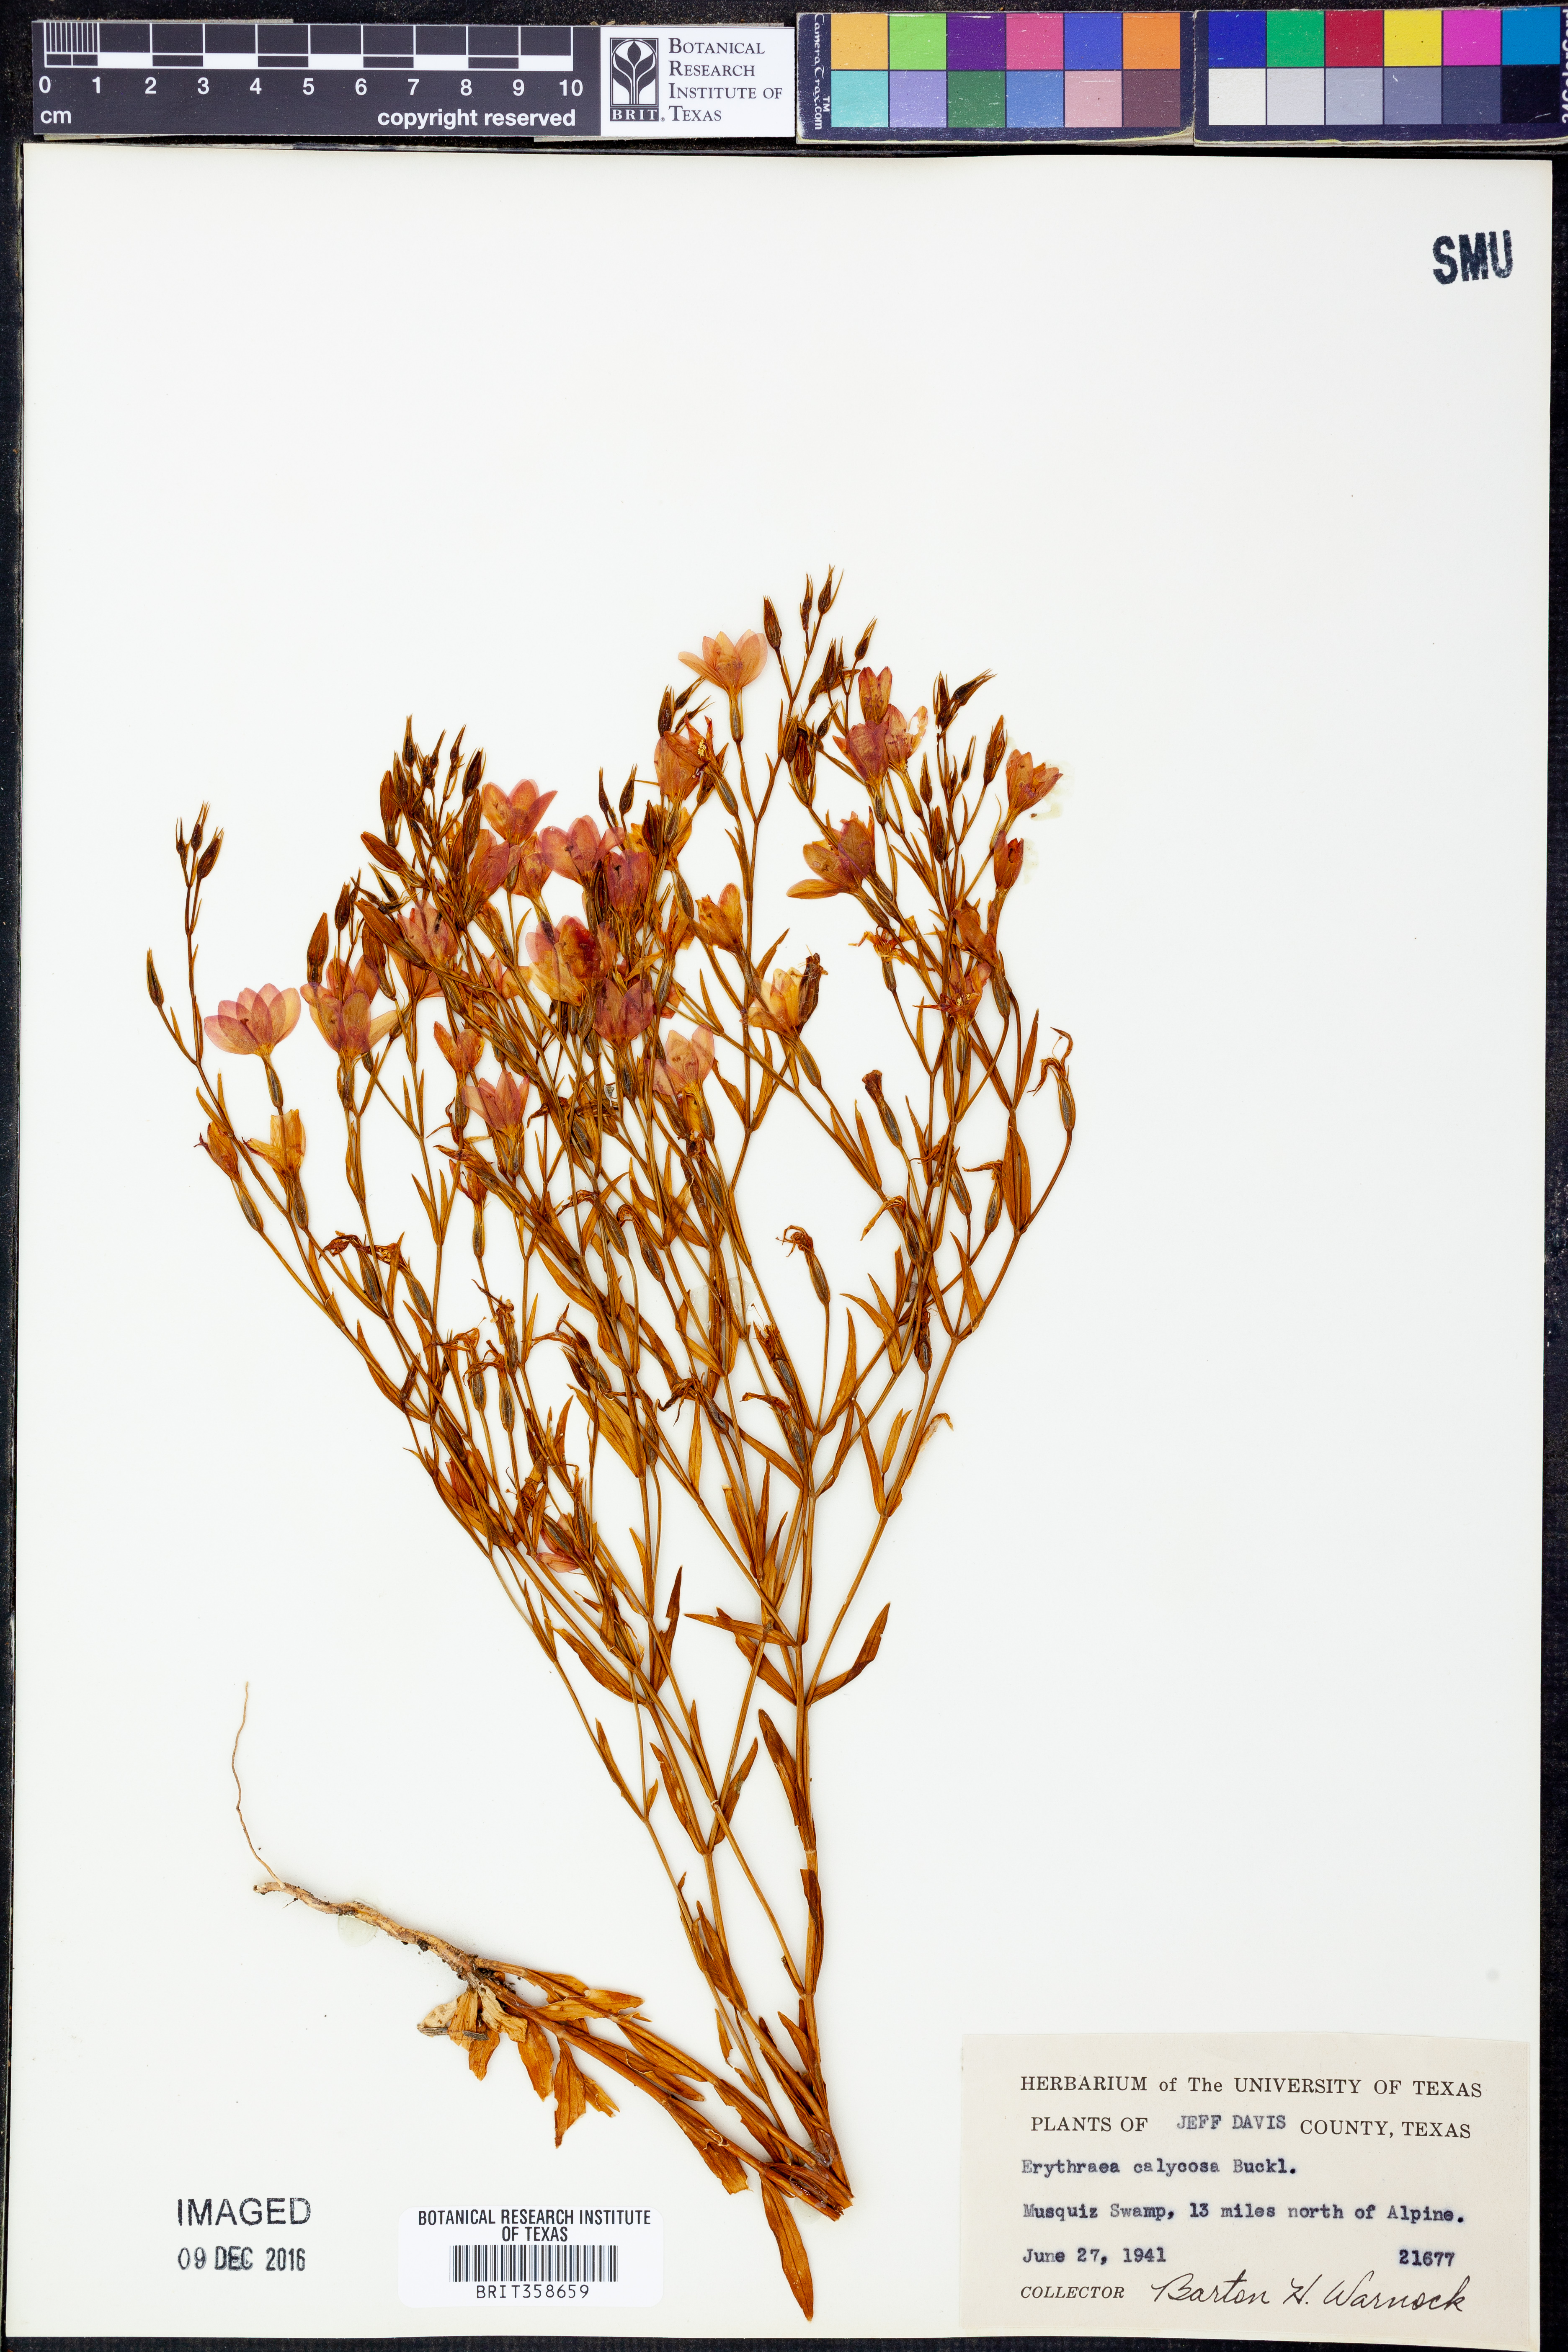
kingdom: Plantae
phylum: Tracheophyta
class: Magnoliopsida
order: Gentianales
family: Gentianaceae
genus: Zeltnera
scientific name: Zeltnera calycosa
